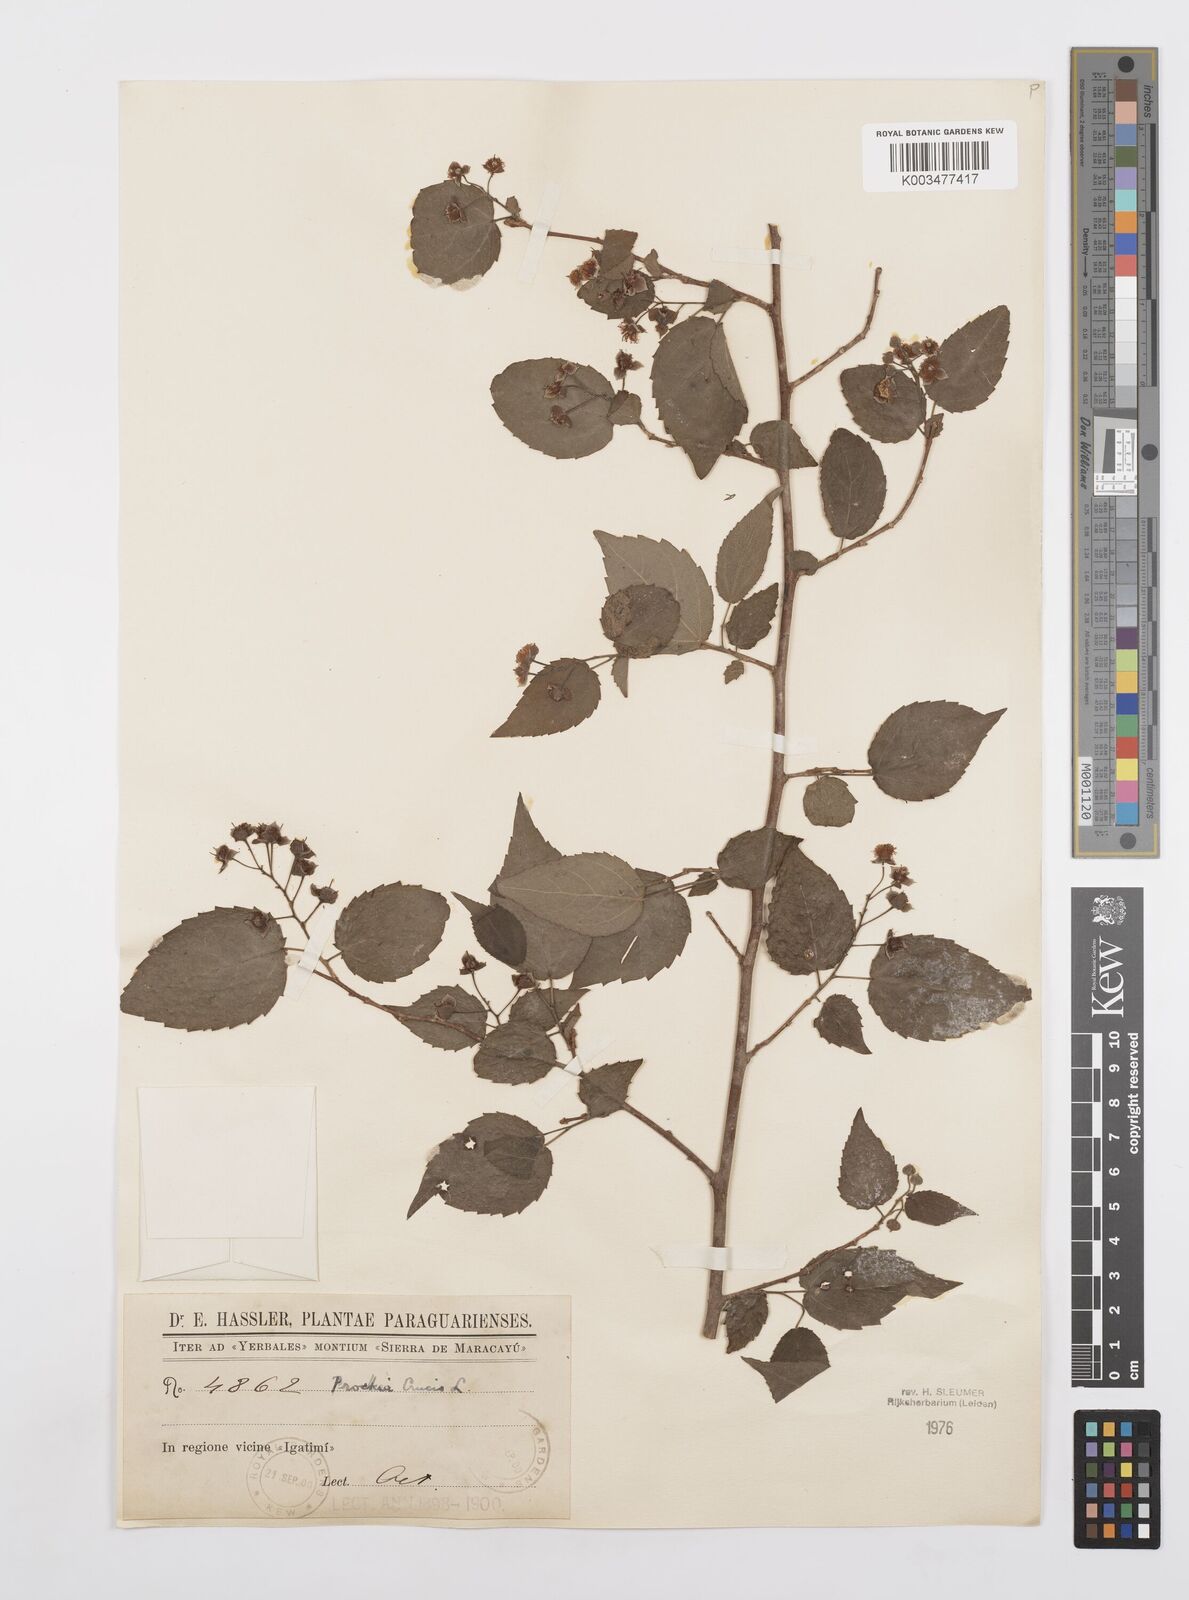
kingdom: Plantae
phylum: Tracheophyta
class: Magnoliopsida
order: Malpighiales
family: Salicaceae
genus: Prockia
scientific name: Prockia crucis
